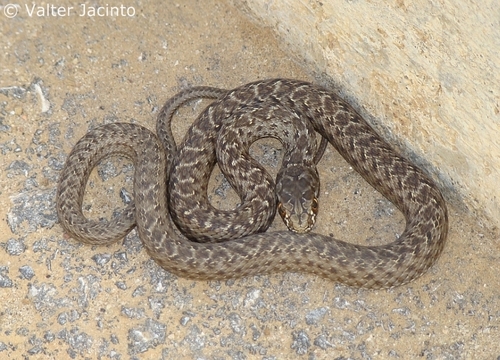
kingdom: Animalia
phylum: Chordata
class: Squamata
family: Psammophiidae
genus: Malpolon
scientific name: Malpolon monspessulanus
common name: Montpellier snake
